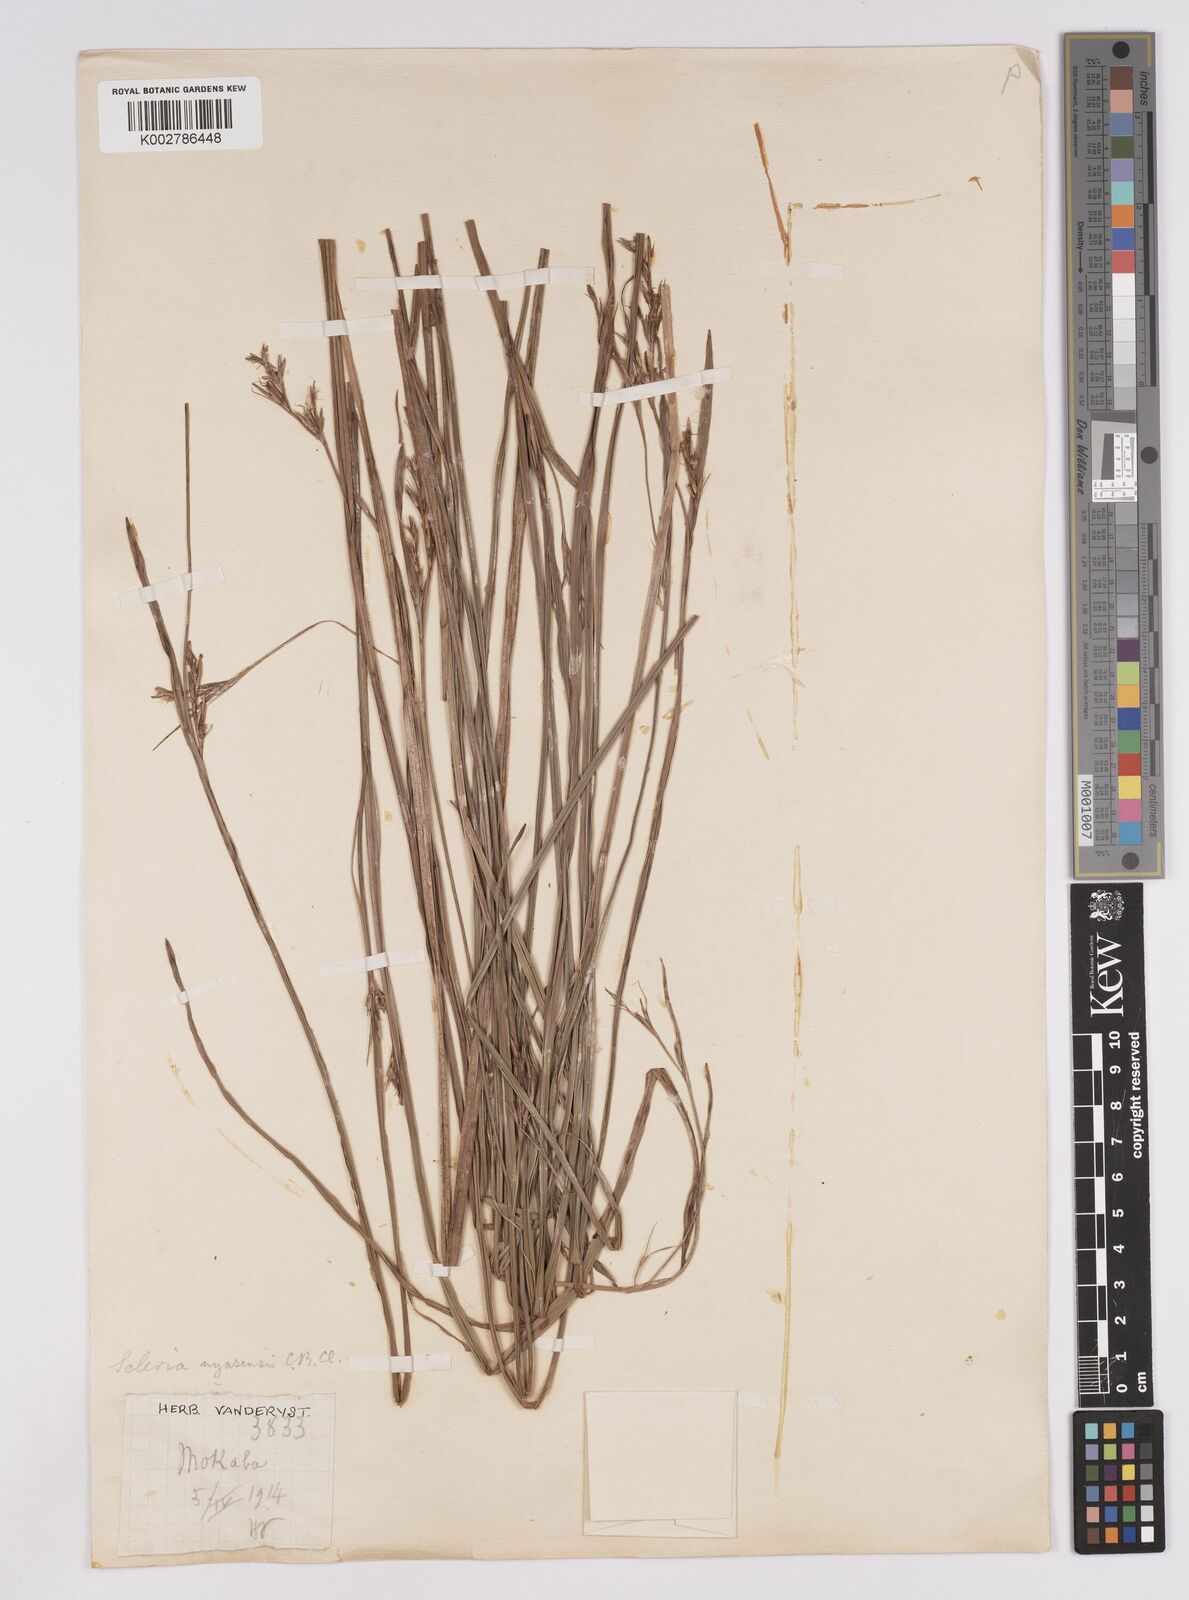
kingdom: Plantae
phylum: Tracheophyta
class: Liliopsida
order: Poales
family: Cyperaceae
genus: Scleria
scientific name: Scleria achtenii
